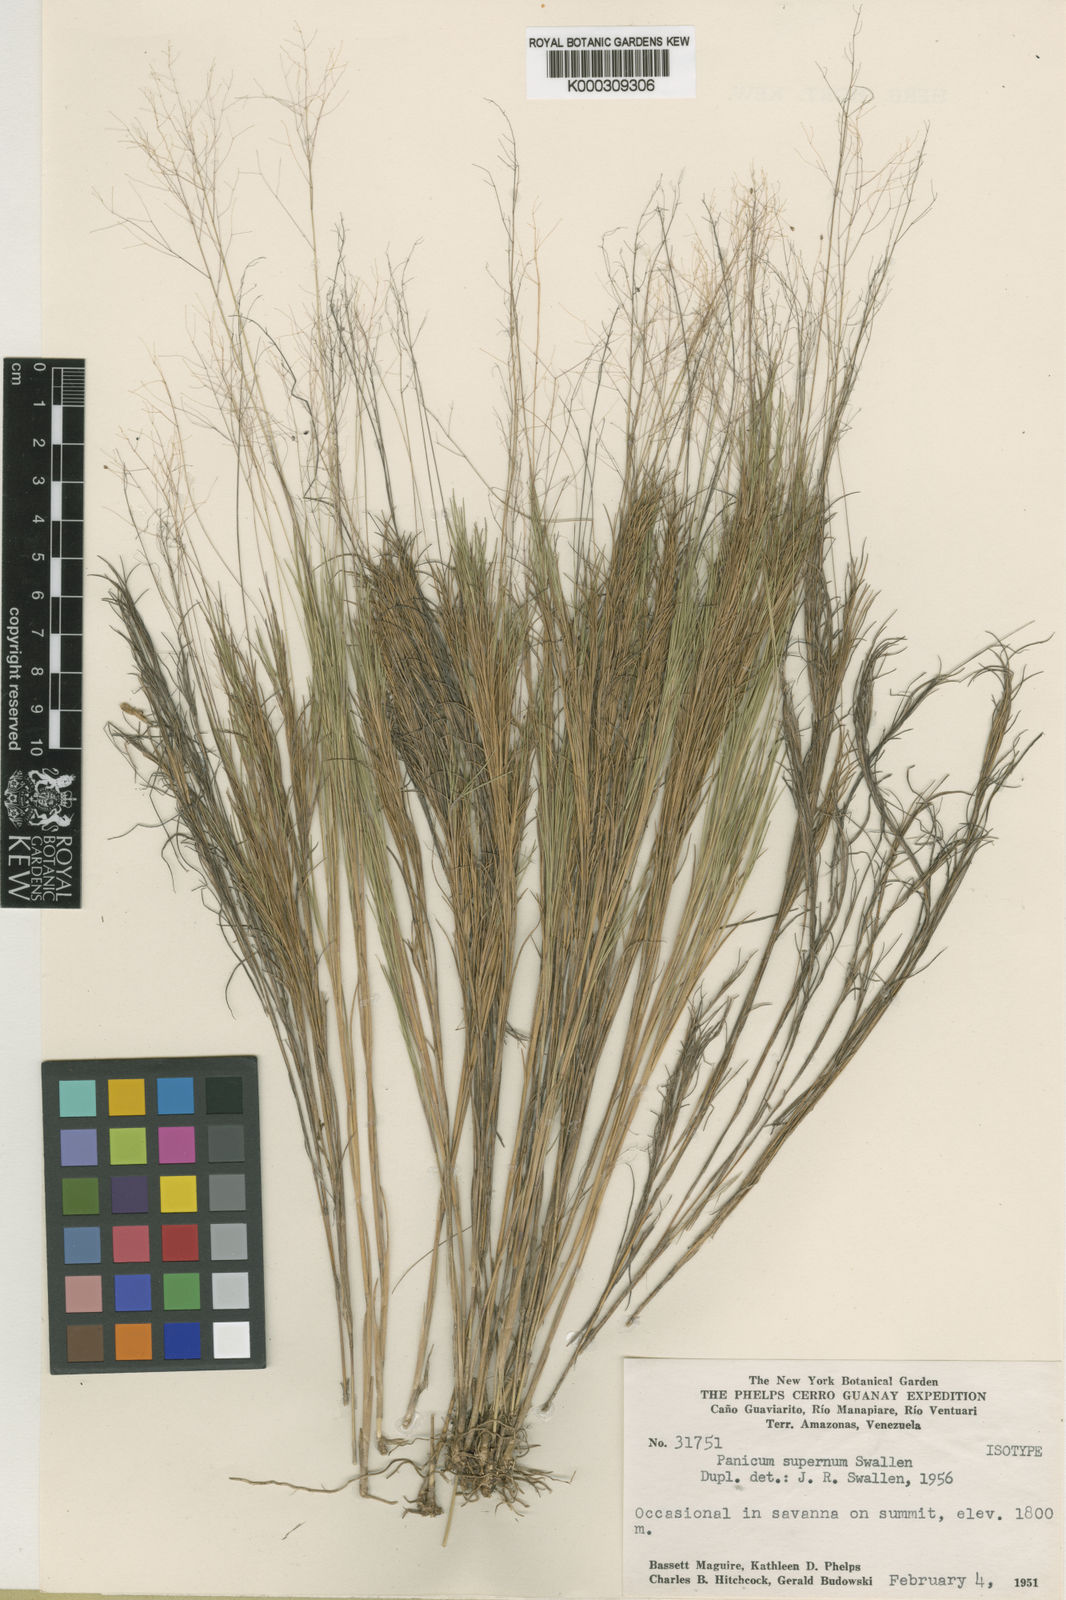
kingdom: Plantae
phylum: Tracheophyta
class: Liliopsida
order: Poales
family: Poaceae
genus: Trichanthecium
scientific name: Trichanthecium micranthum
